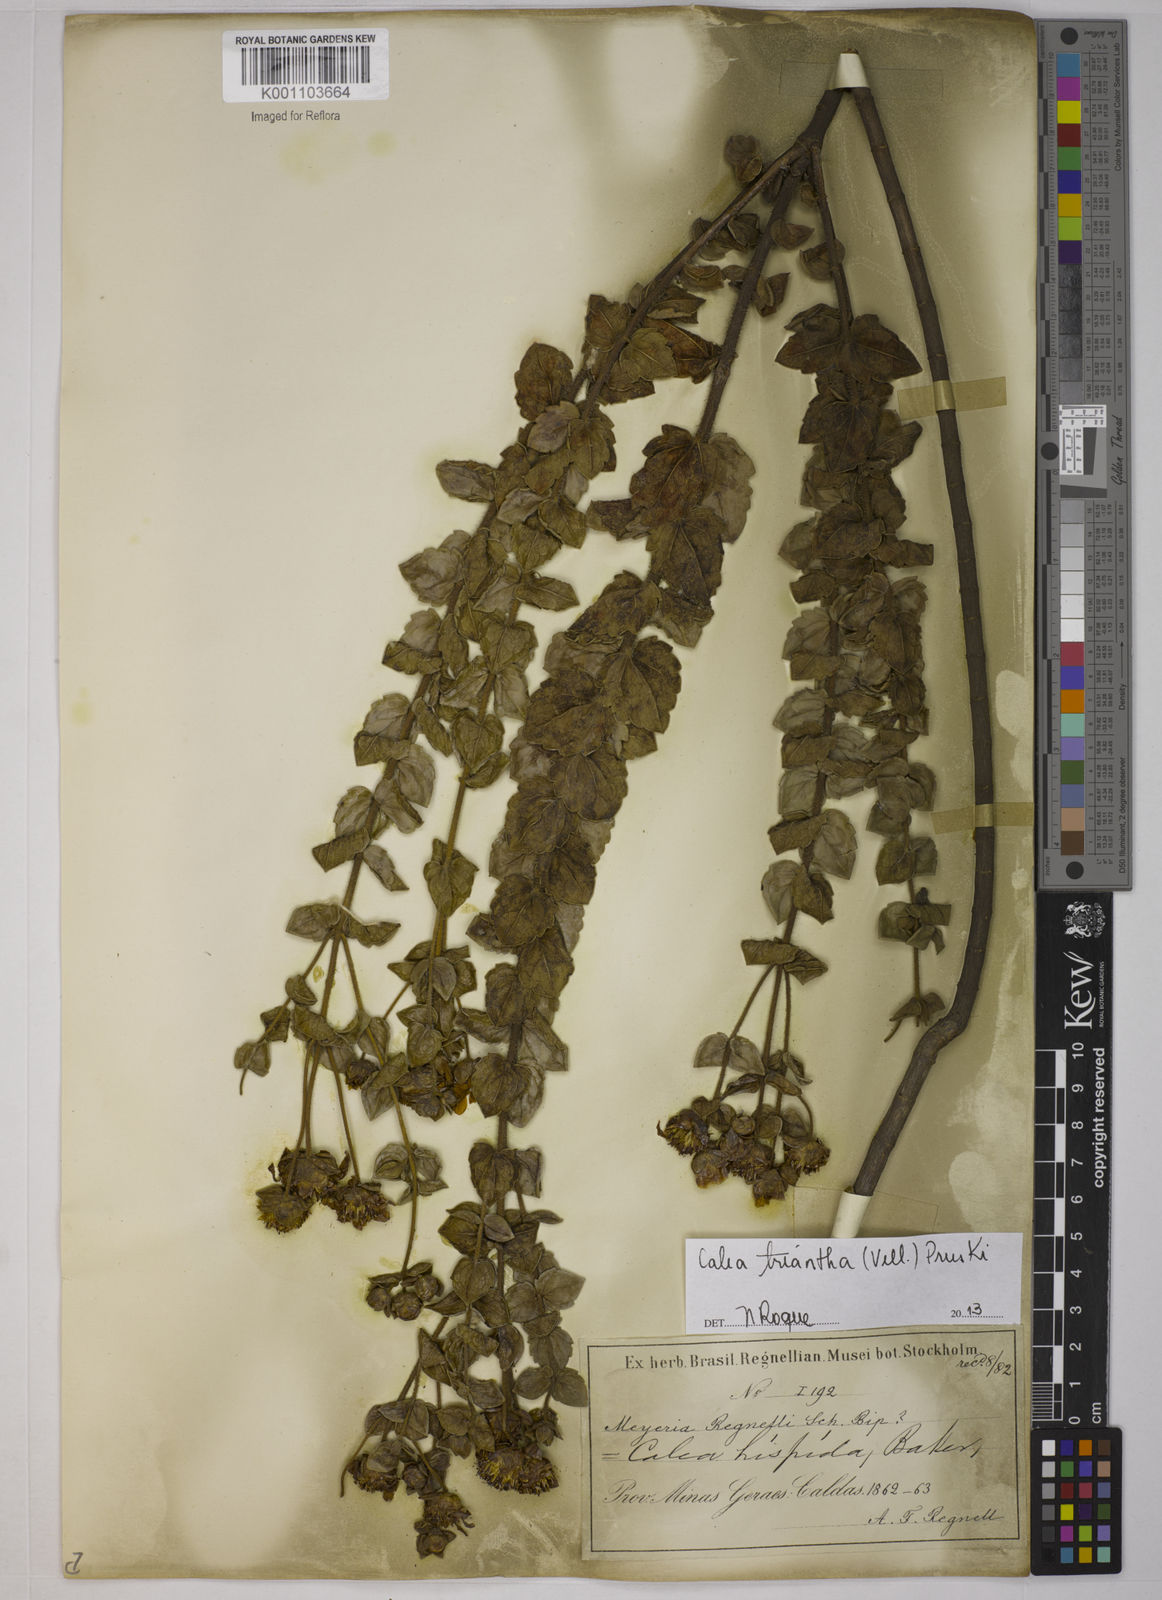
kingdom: Plantae
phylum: Tracheophyta
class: Magnoliopsida
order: Asterales
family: Asteraceae
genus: Calea
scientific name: Calea triantha
